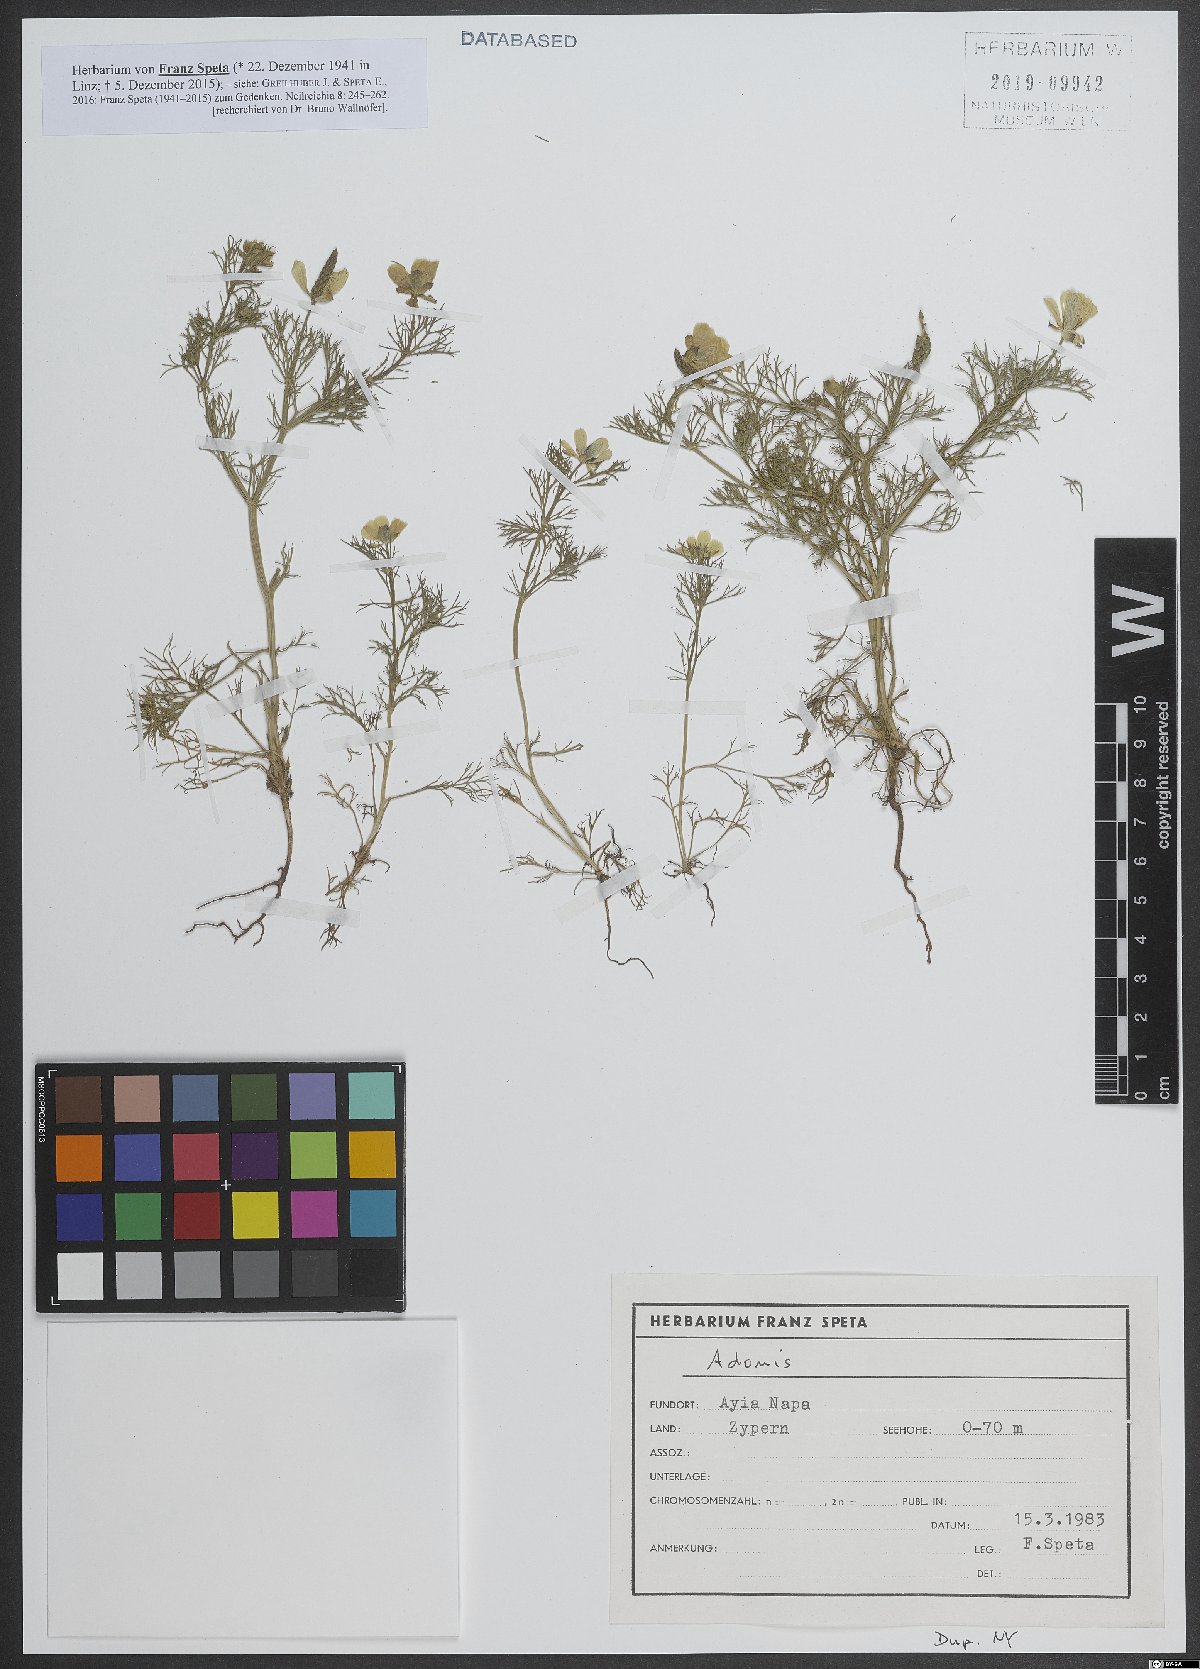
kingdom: Plantae
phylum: Tracheophyta
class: Magnoliopsida
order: Ranunculales
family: Ranunculaceae
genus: Adonis
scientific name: Adonis
